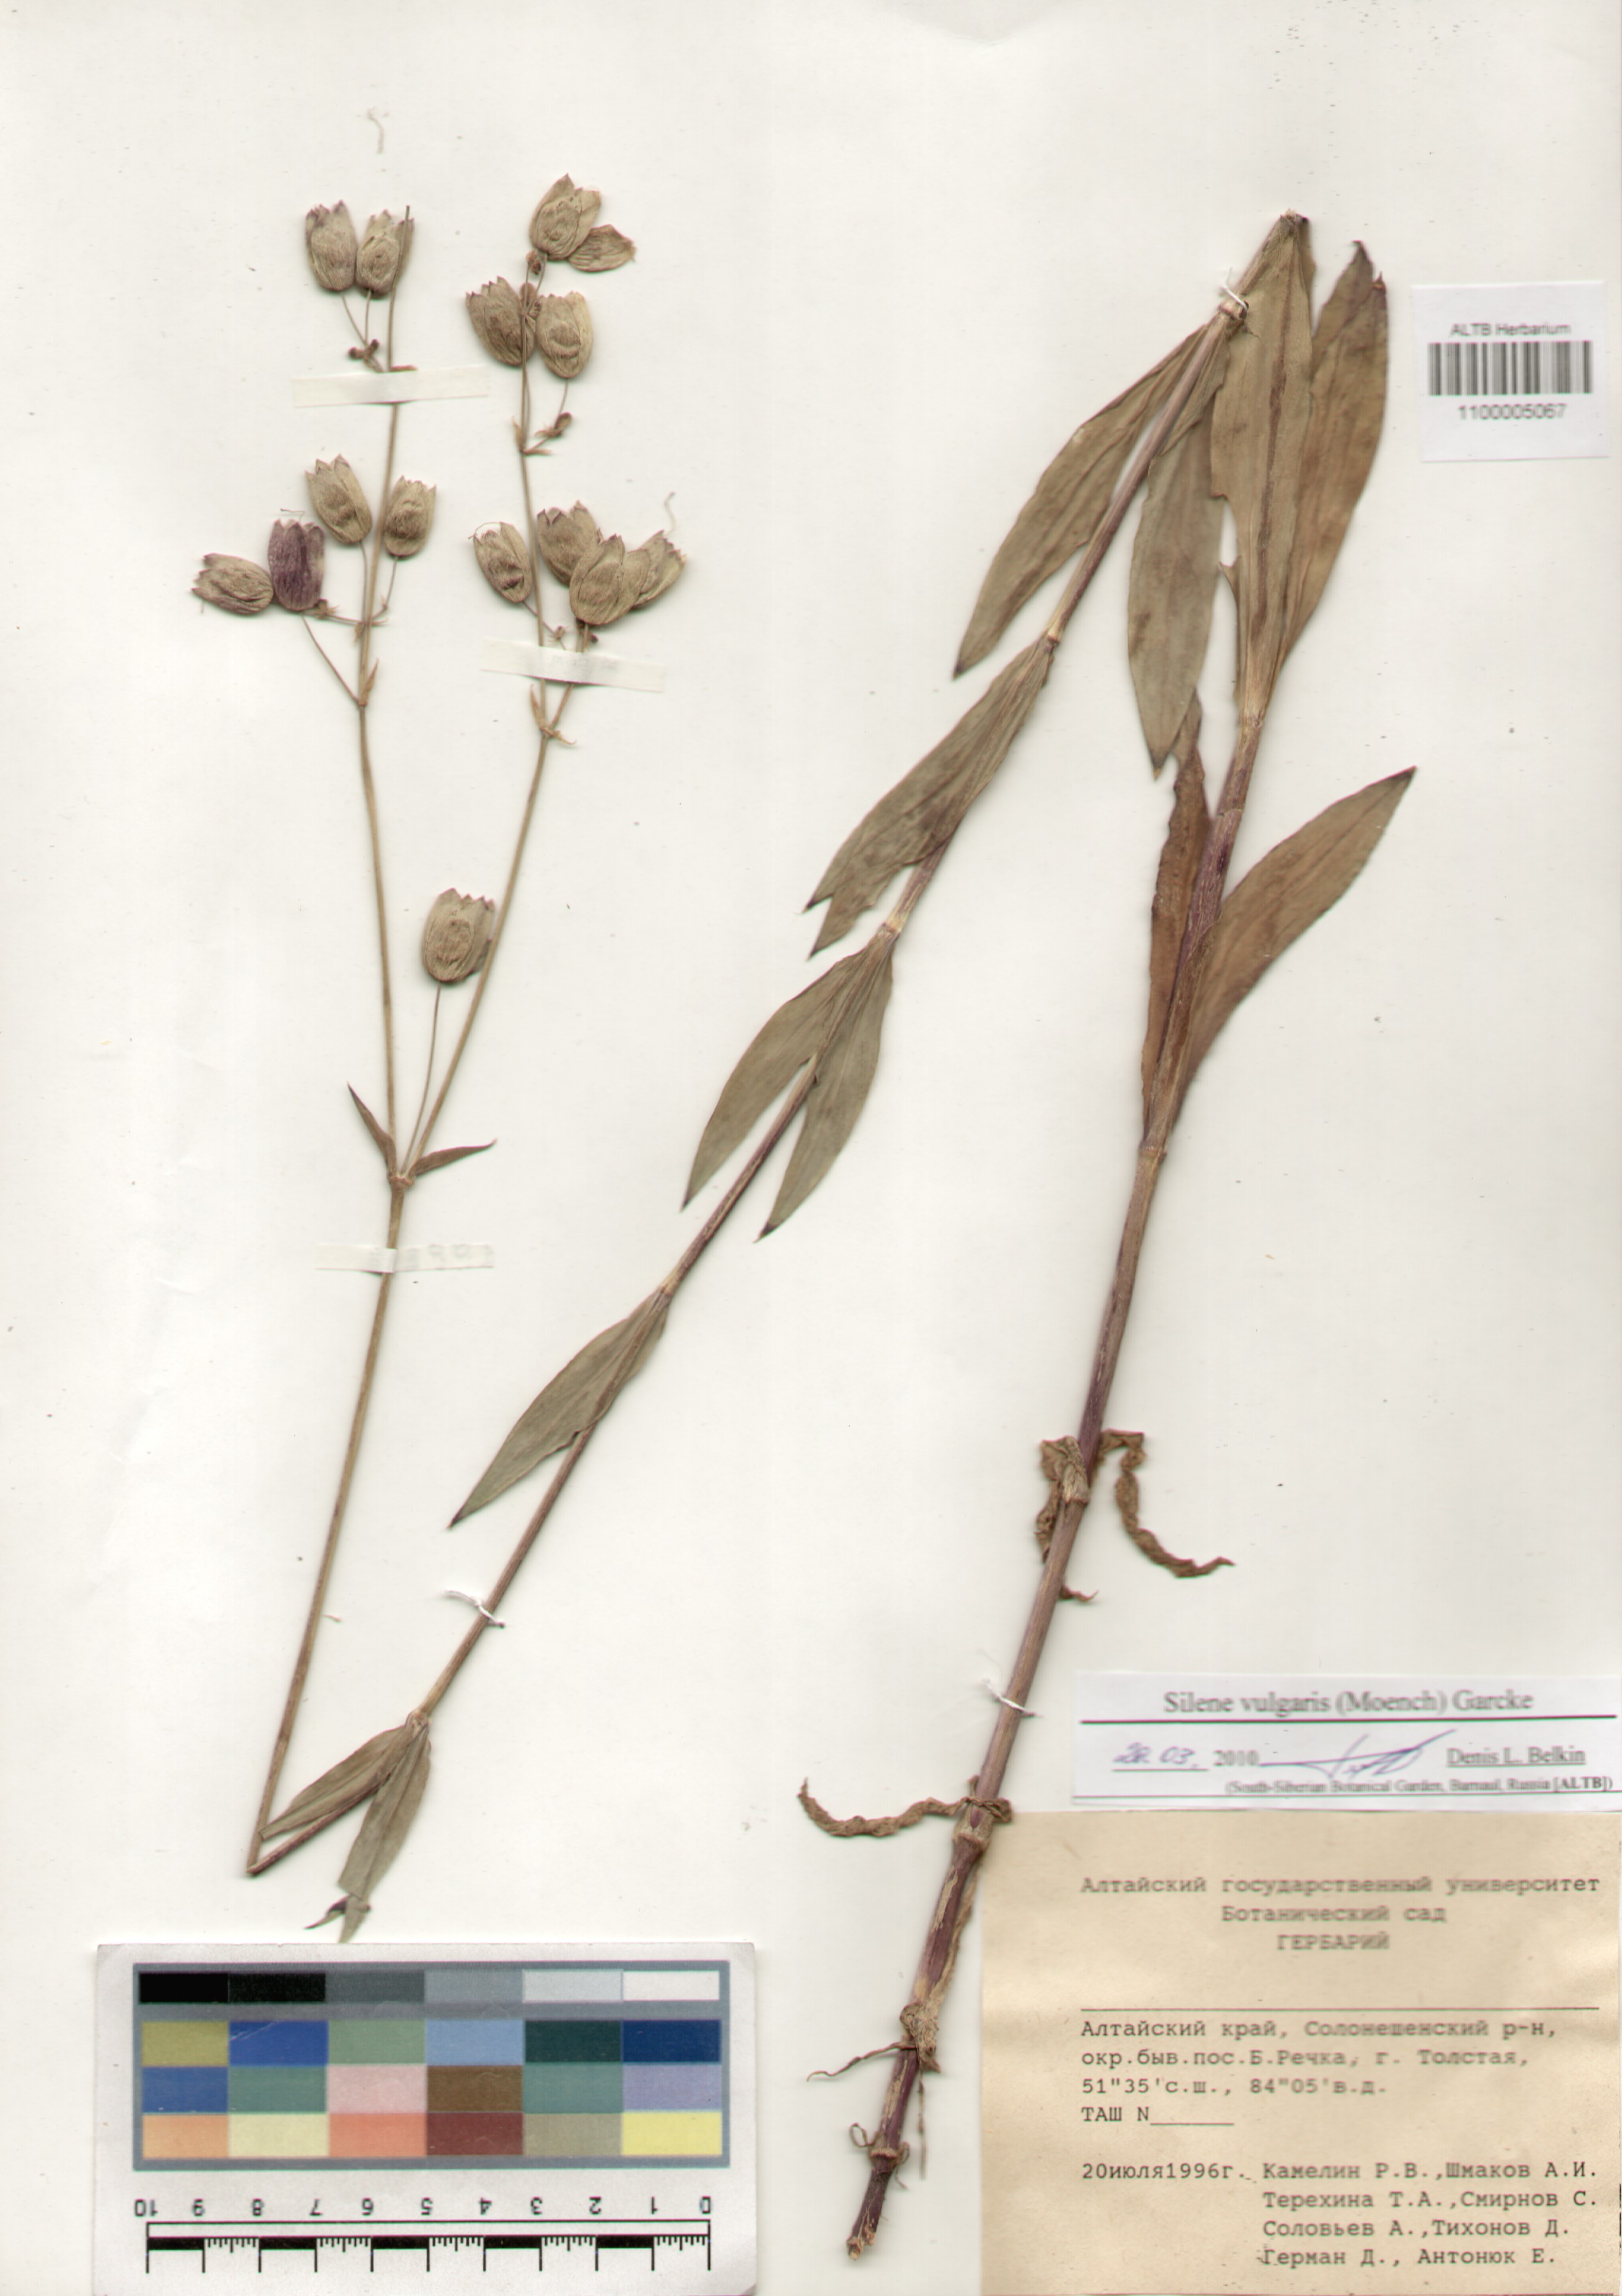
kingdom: Plantae
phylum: Tracheophyta
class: Magnoliopsida
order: Caryophyllales
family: Caryophyllaceae
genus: Silene
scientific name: Silene vulgaris
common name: Bladder campion
